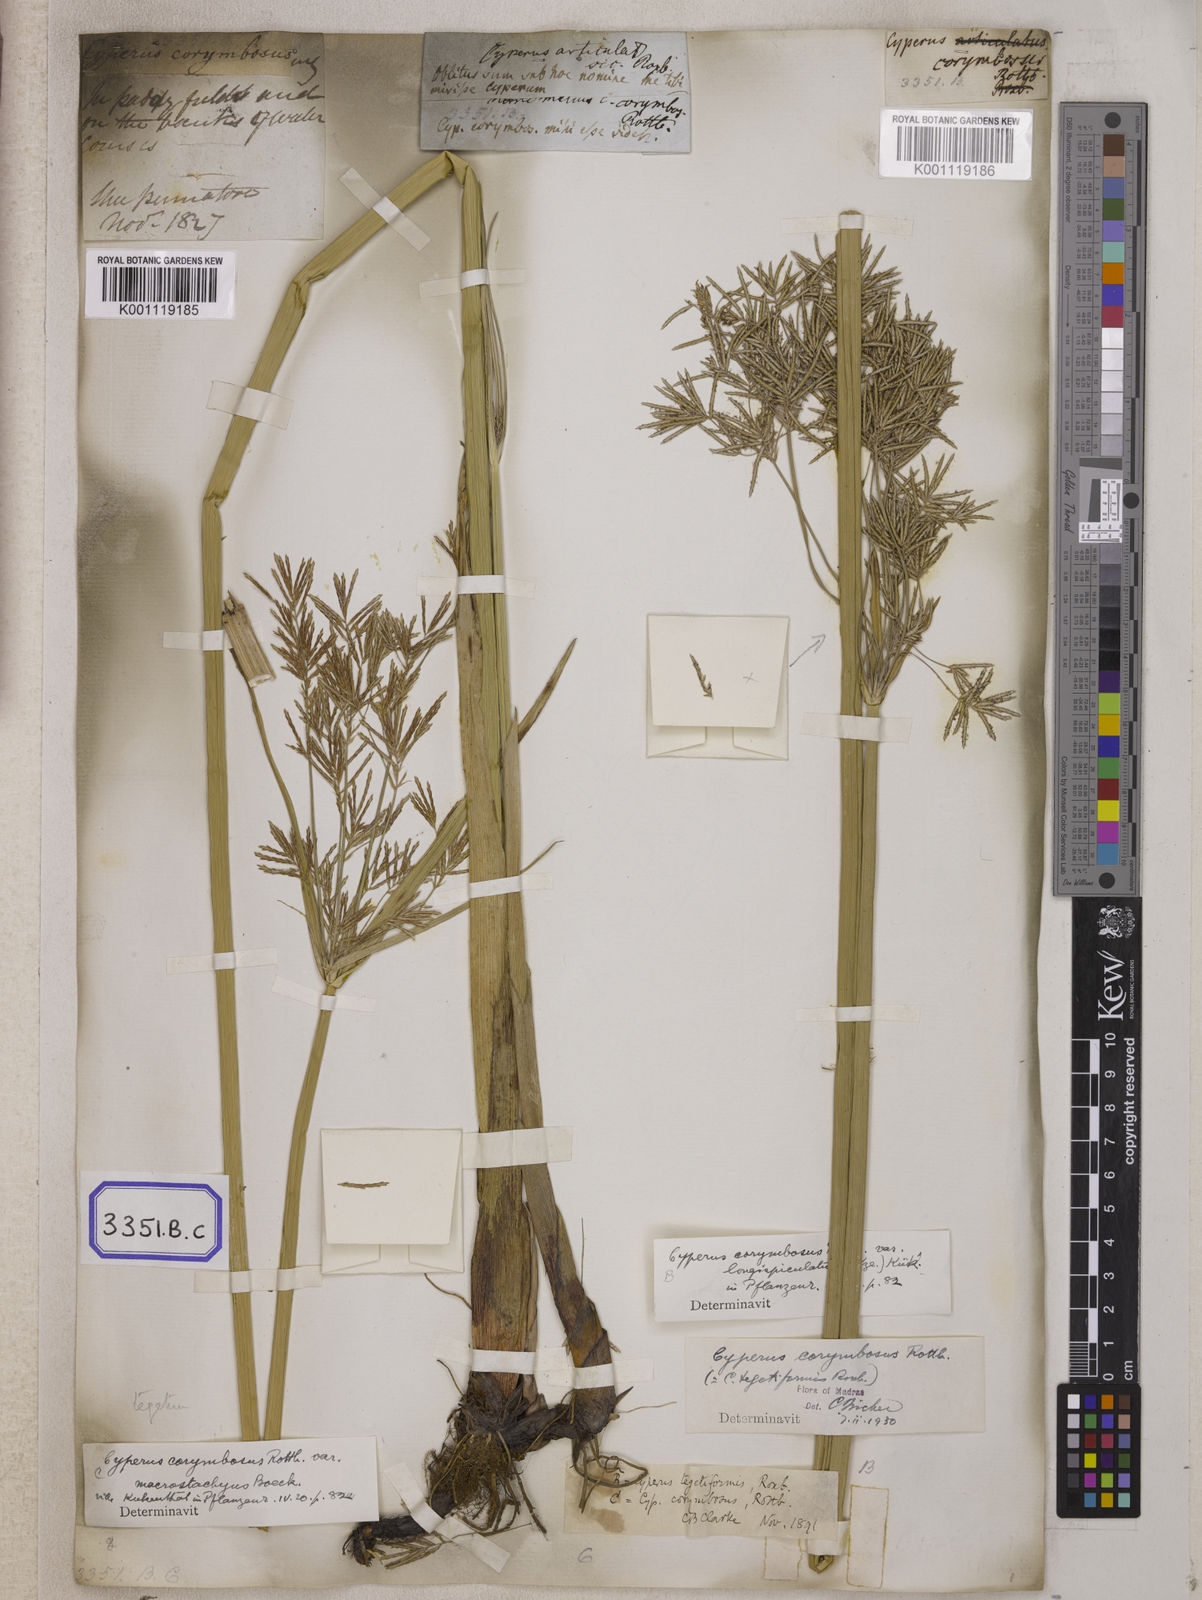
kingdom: Plantae
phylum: Tracheophyta
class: Liliopsida
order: Poales
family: Cyperaceae
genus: Cyperus
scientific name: Cyperus
